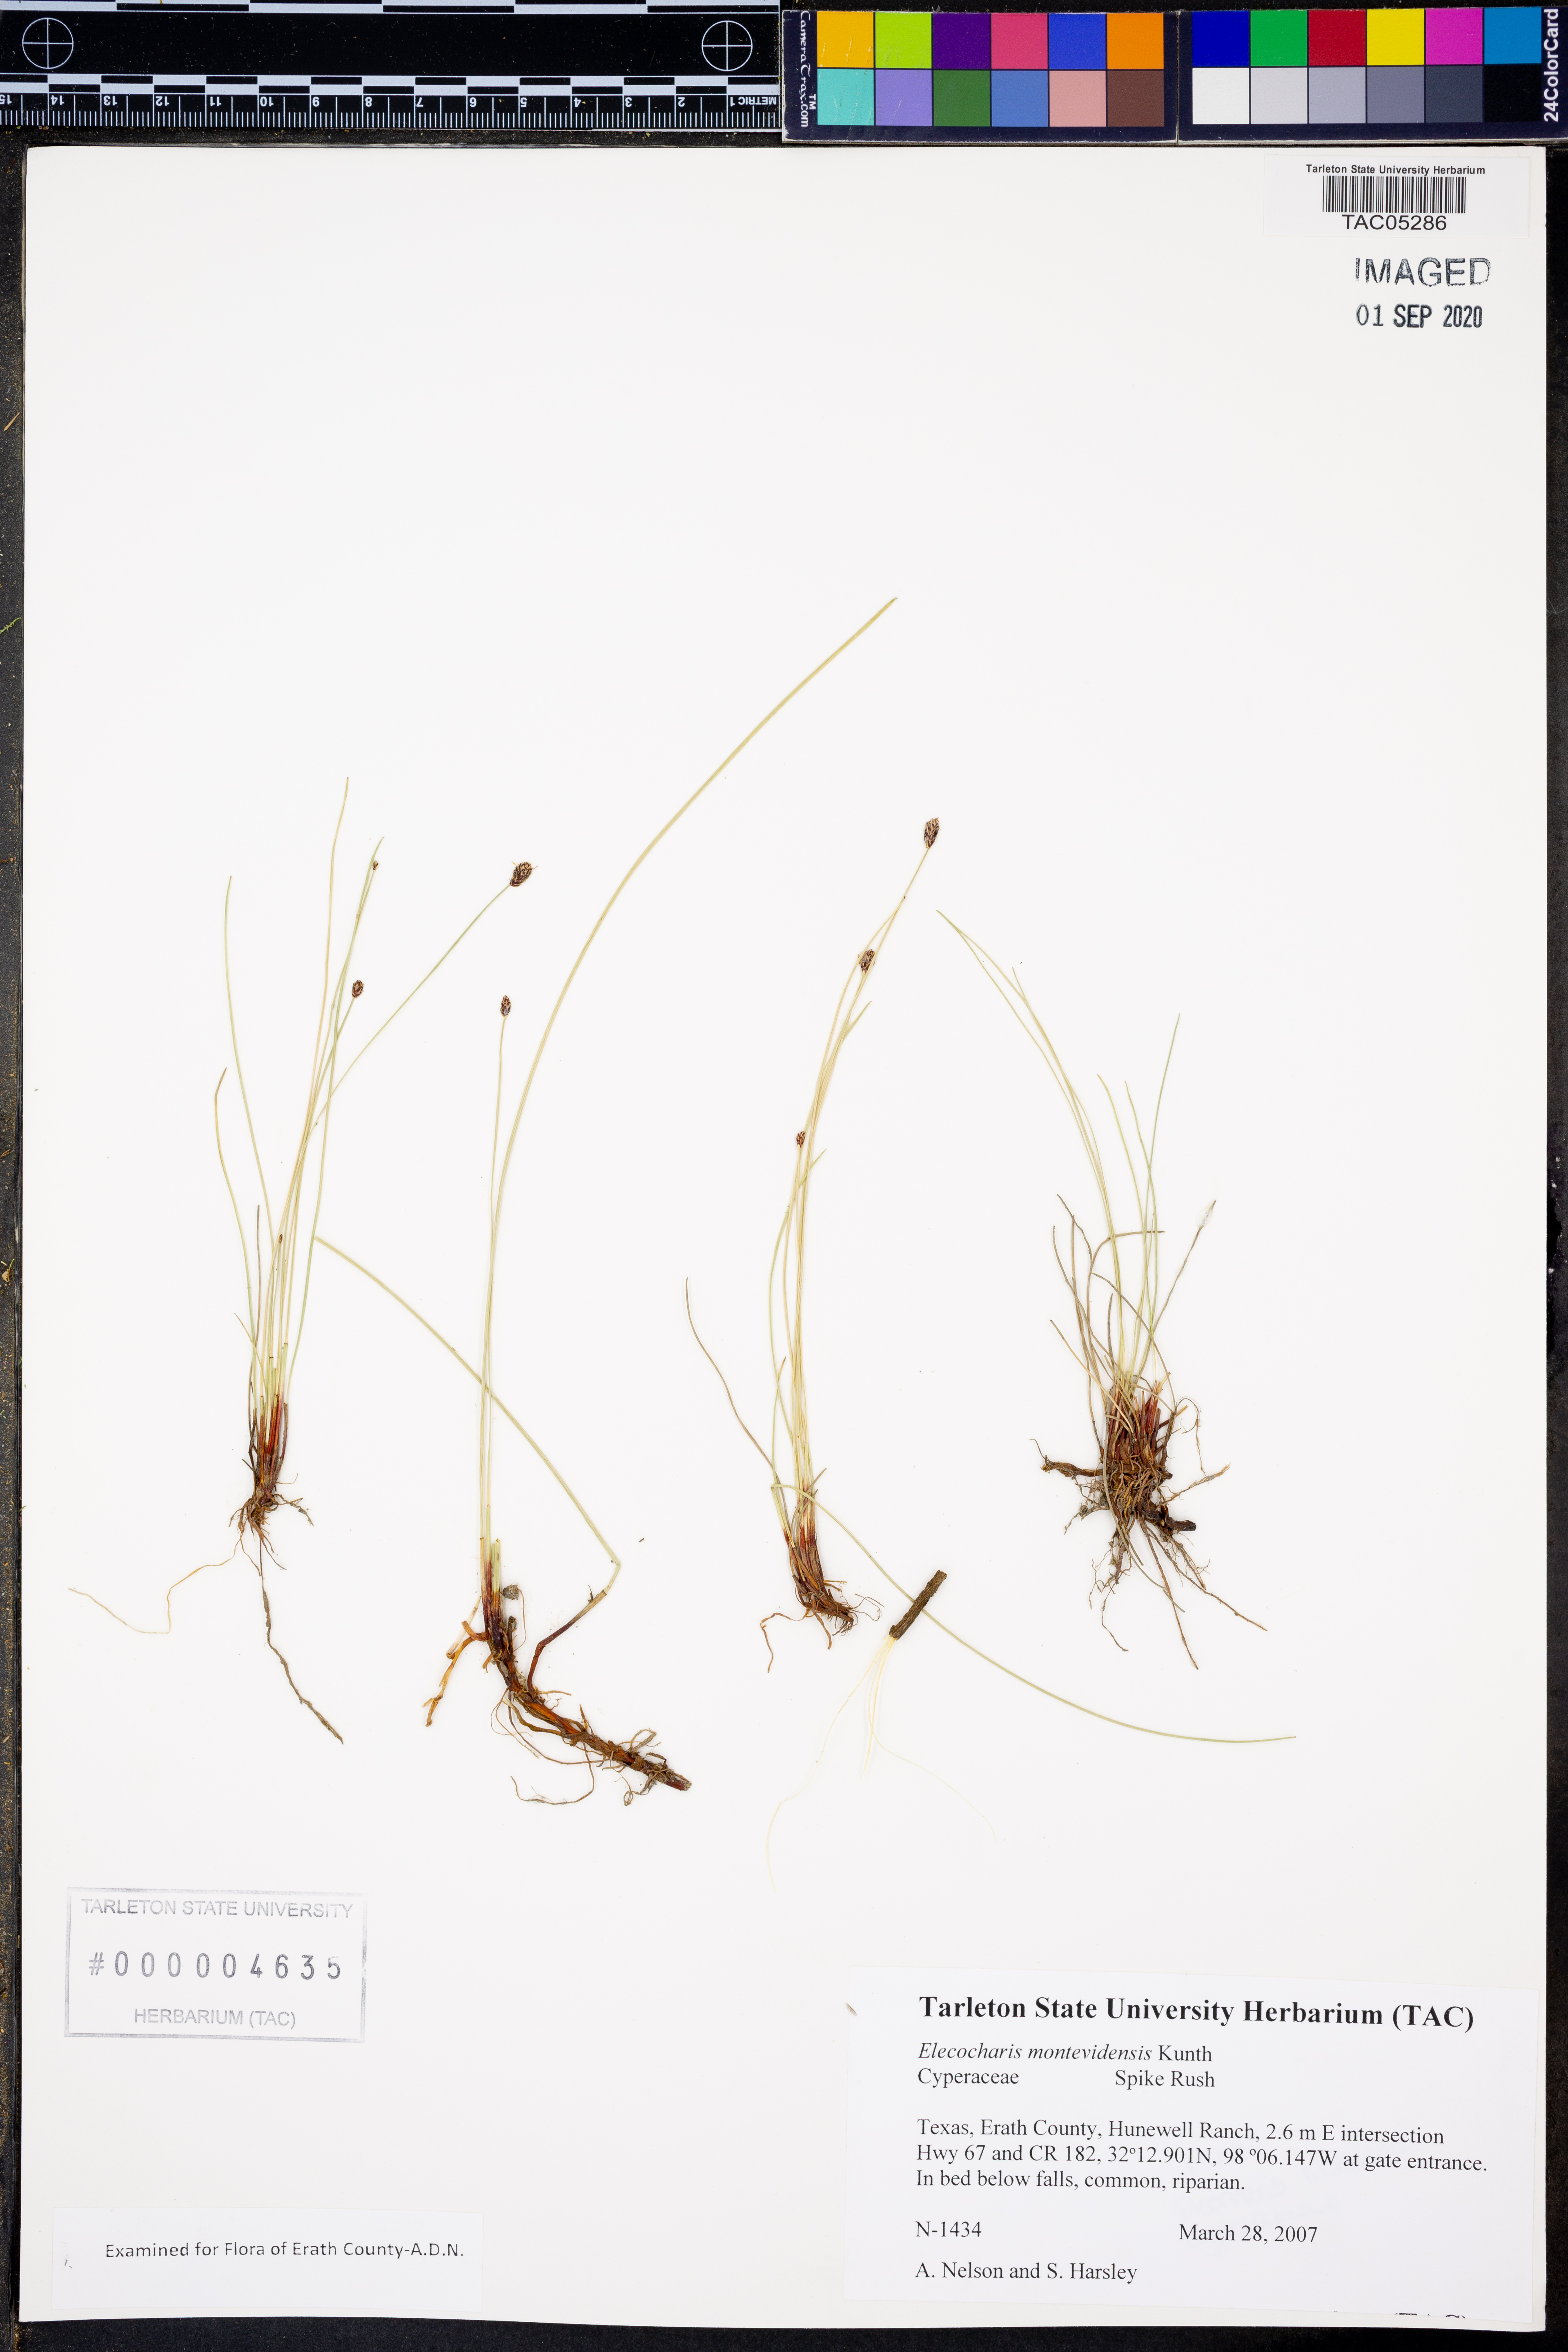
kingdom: Plantae
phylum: Tracheophyta
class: Liliopsida
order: Poales
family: Cyperaceae
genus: Eleocharis
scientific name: Eleocharis montevidensis
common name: Sand spike-rush
